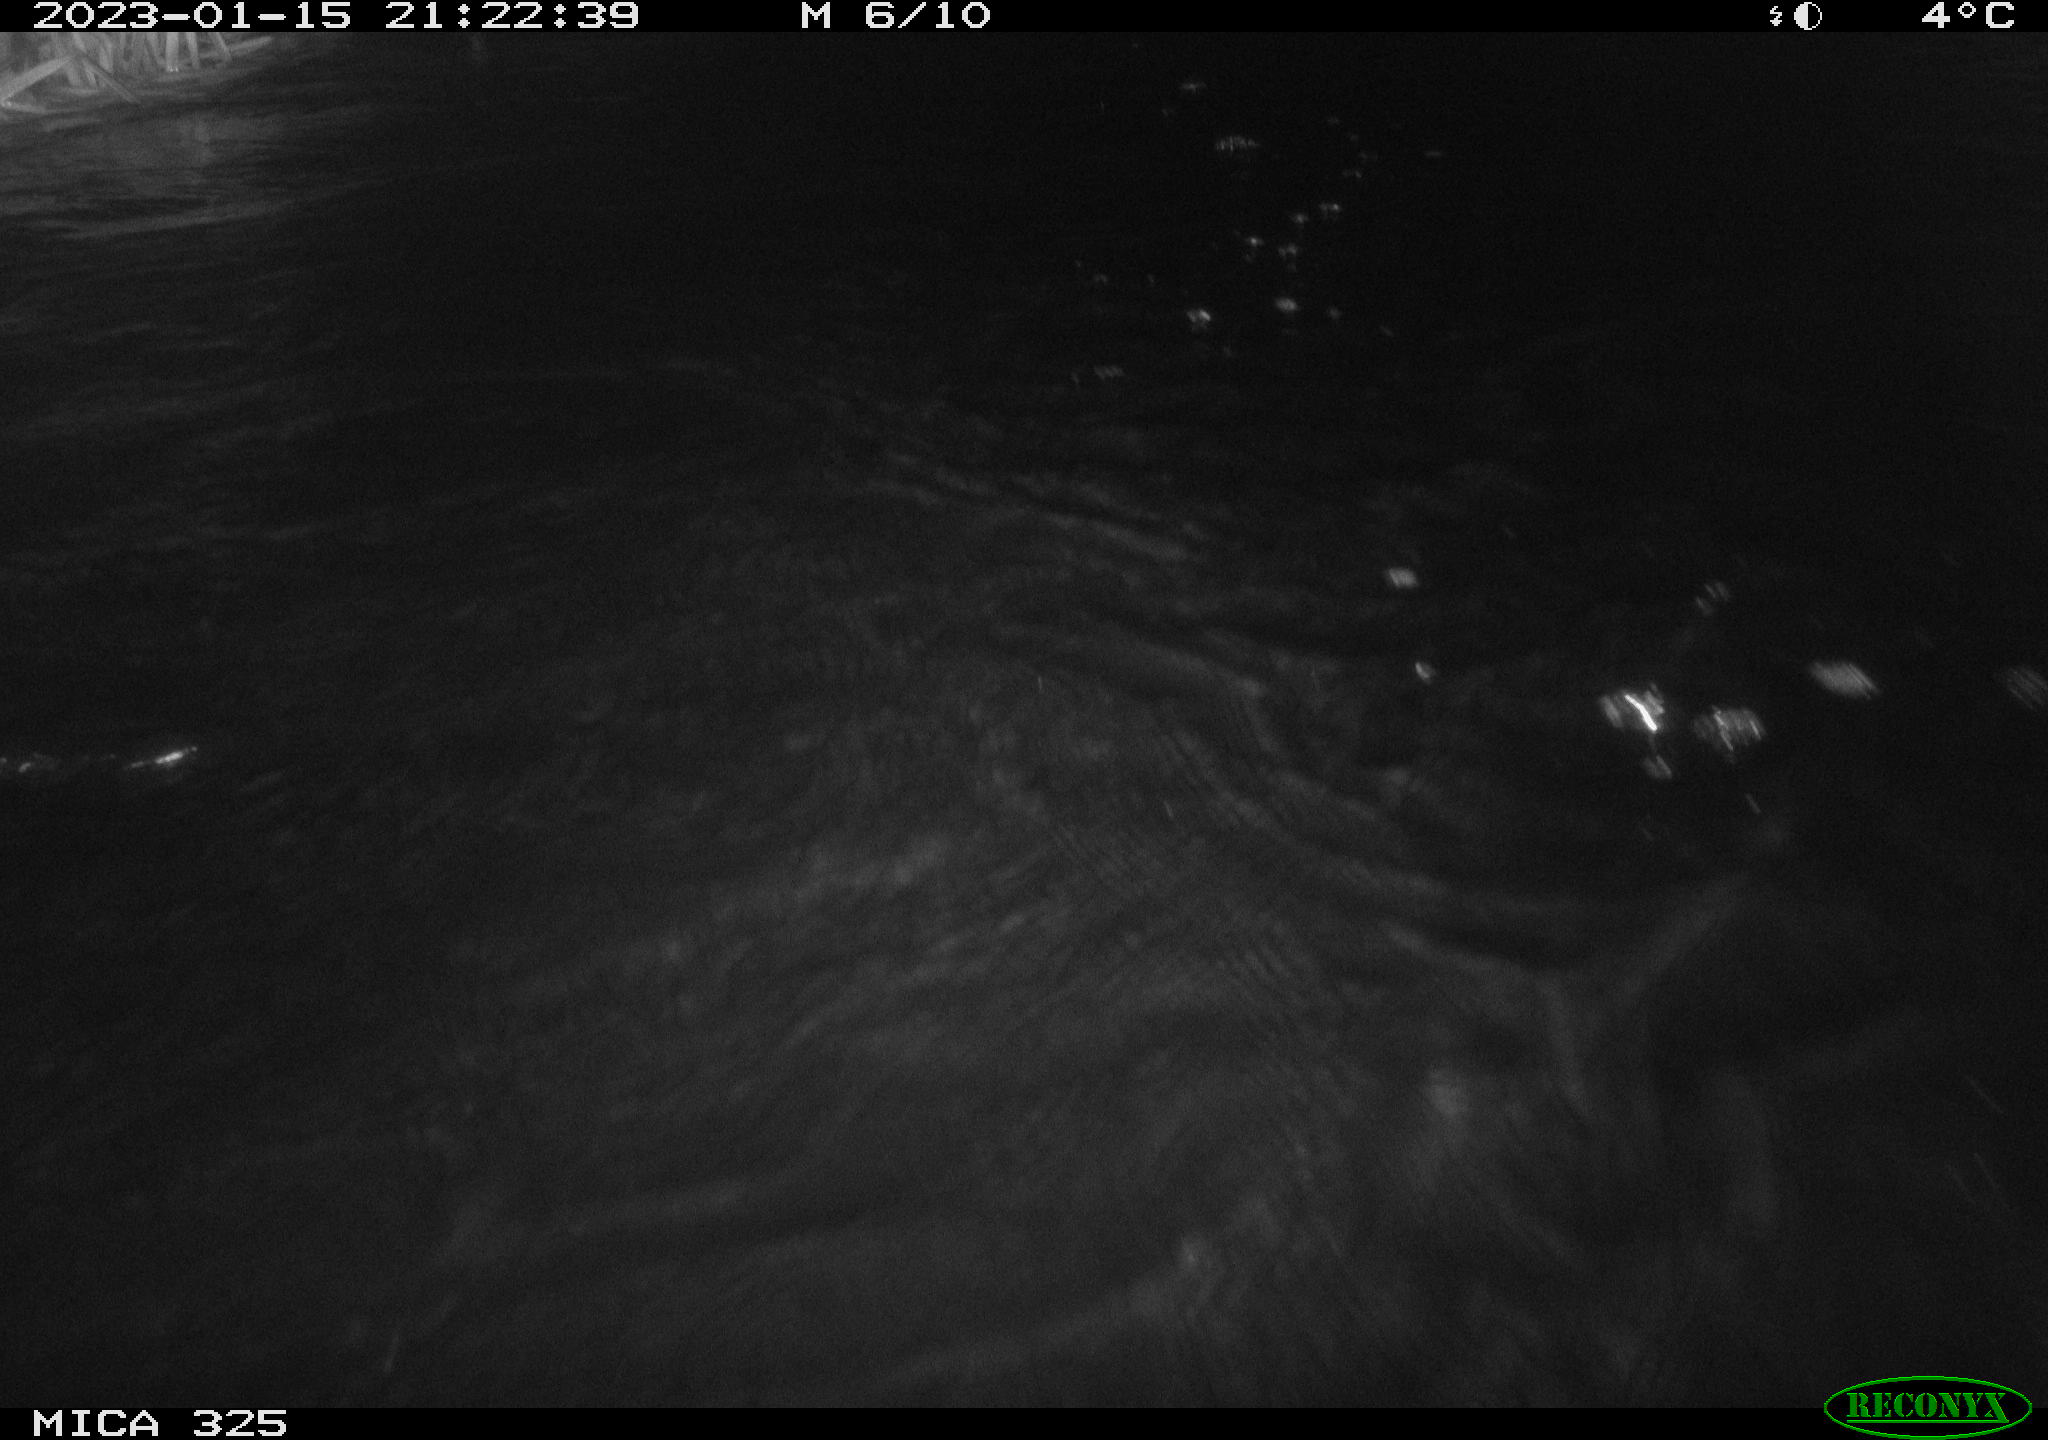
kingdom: Animalia
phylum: Chordata
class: Mammalia
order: Rodentia
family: Cricetidae
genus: Ondatra
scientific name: Ondatra zibethicus
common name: Muskrat
